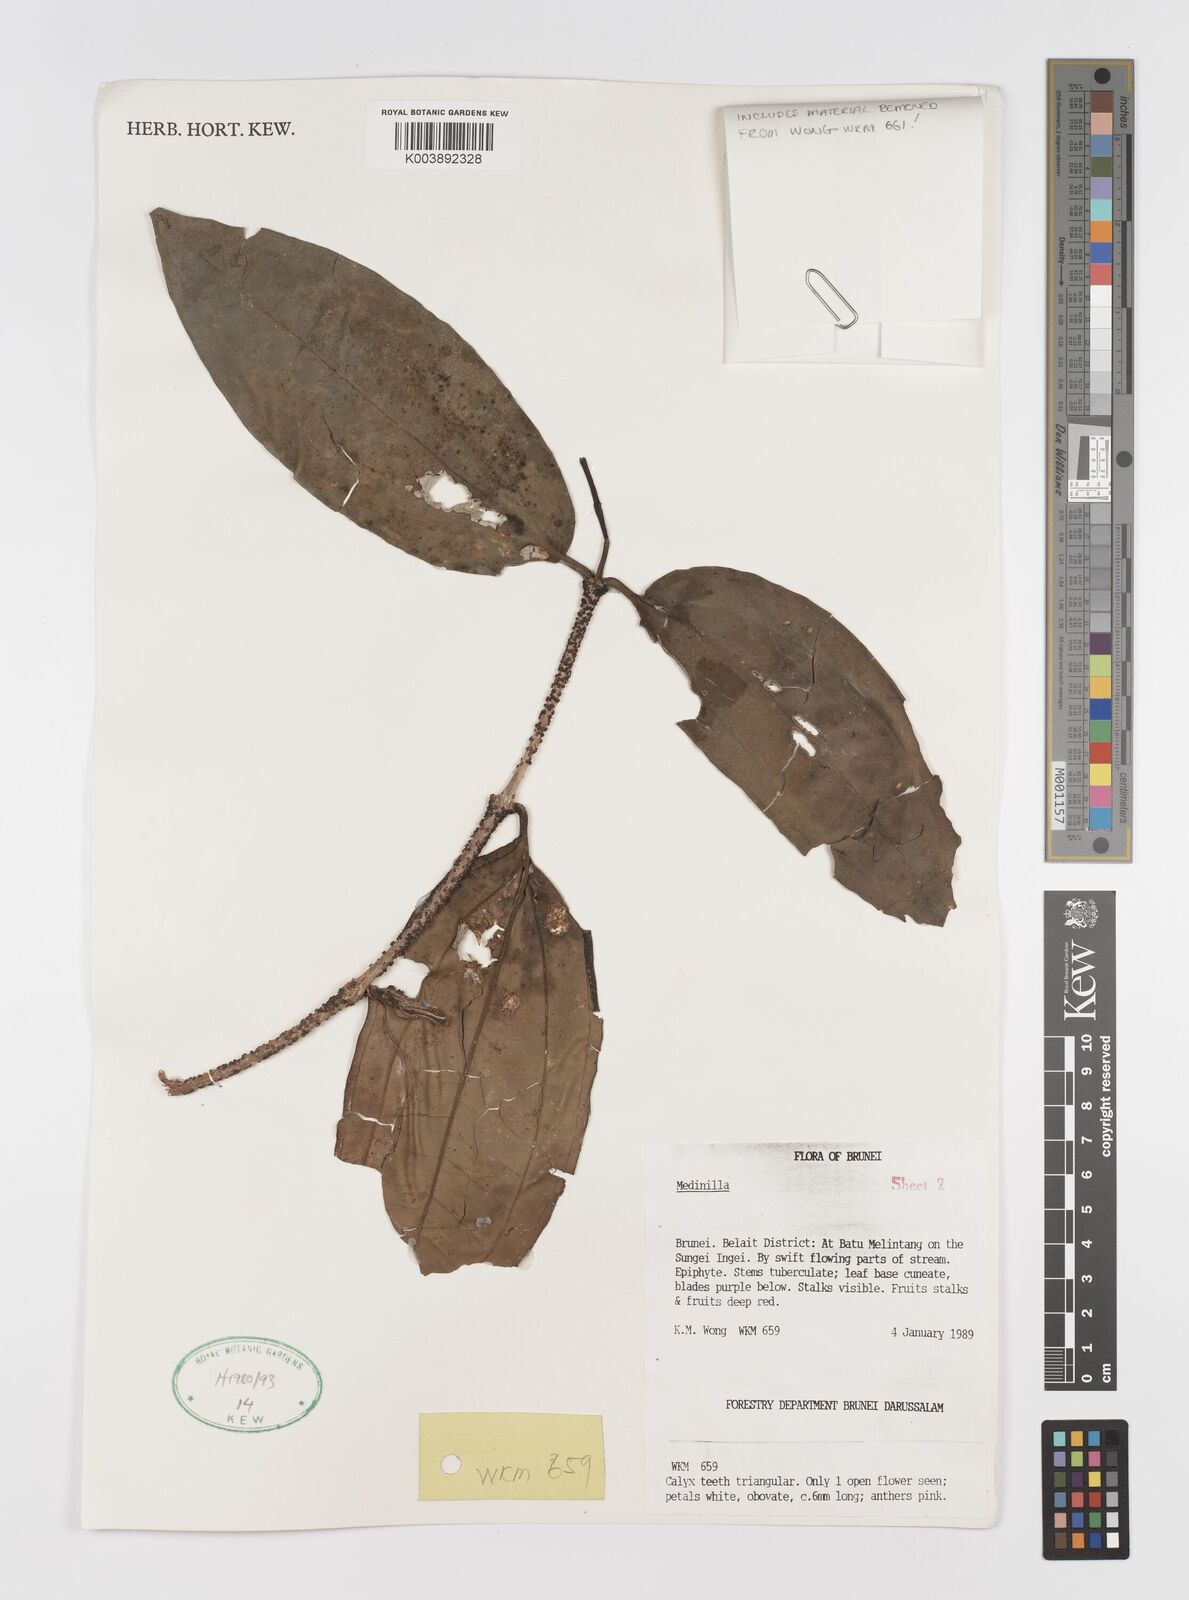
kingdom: Plantae
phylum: Tracheophyta
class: Magnoliopsida
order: Myrtales
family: Melastomataceae
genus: Medinilla
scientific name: Medinilla
